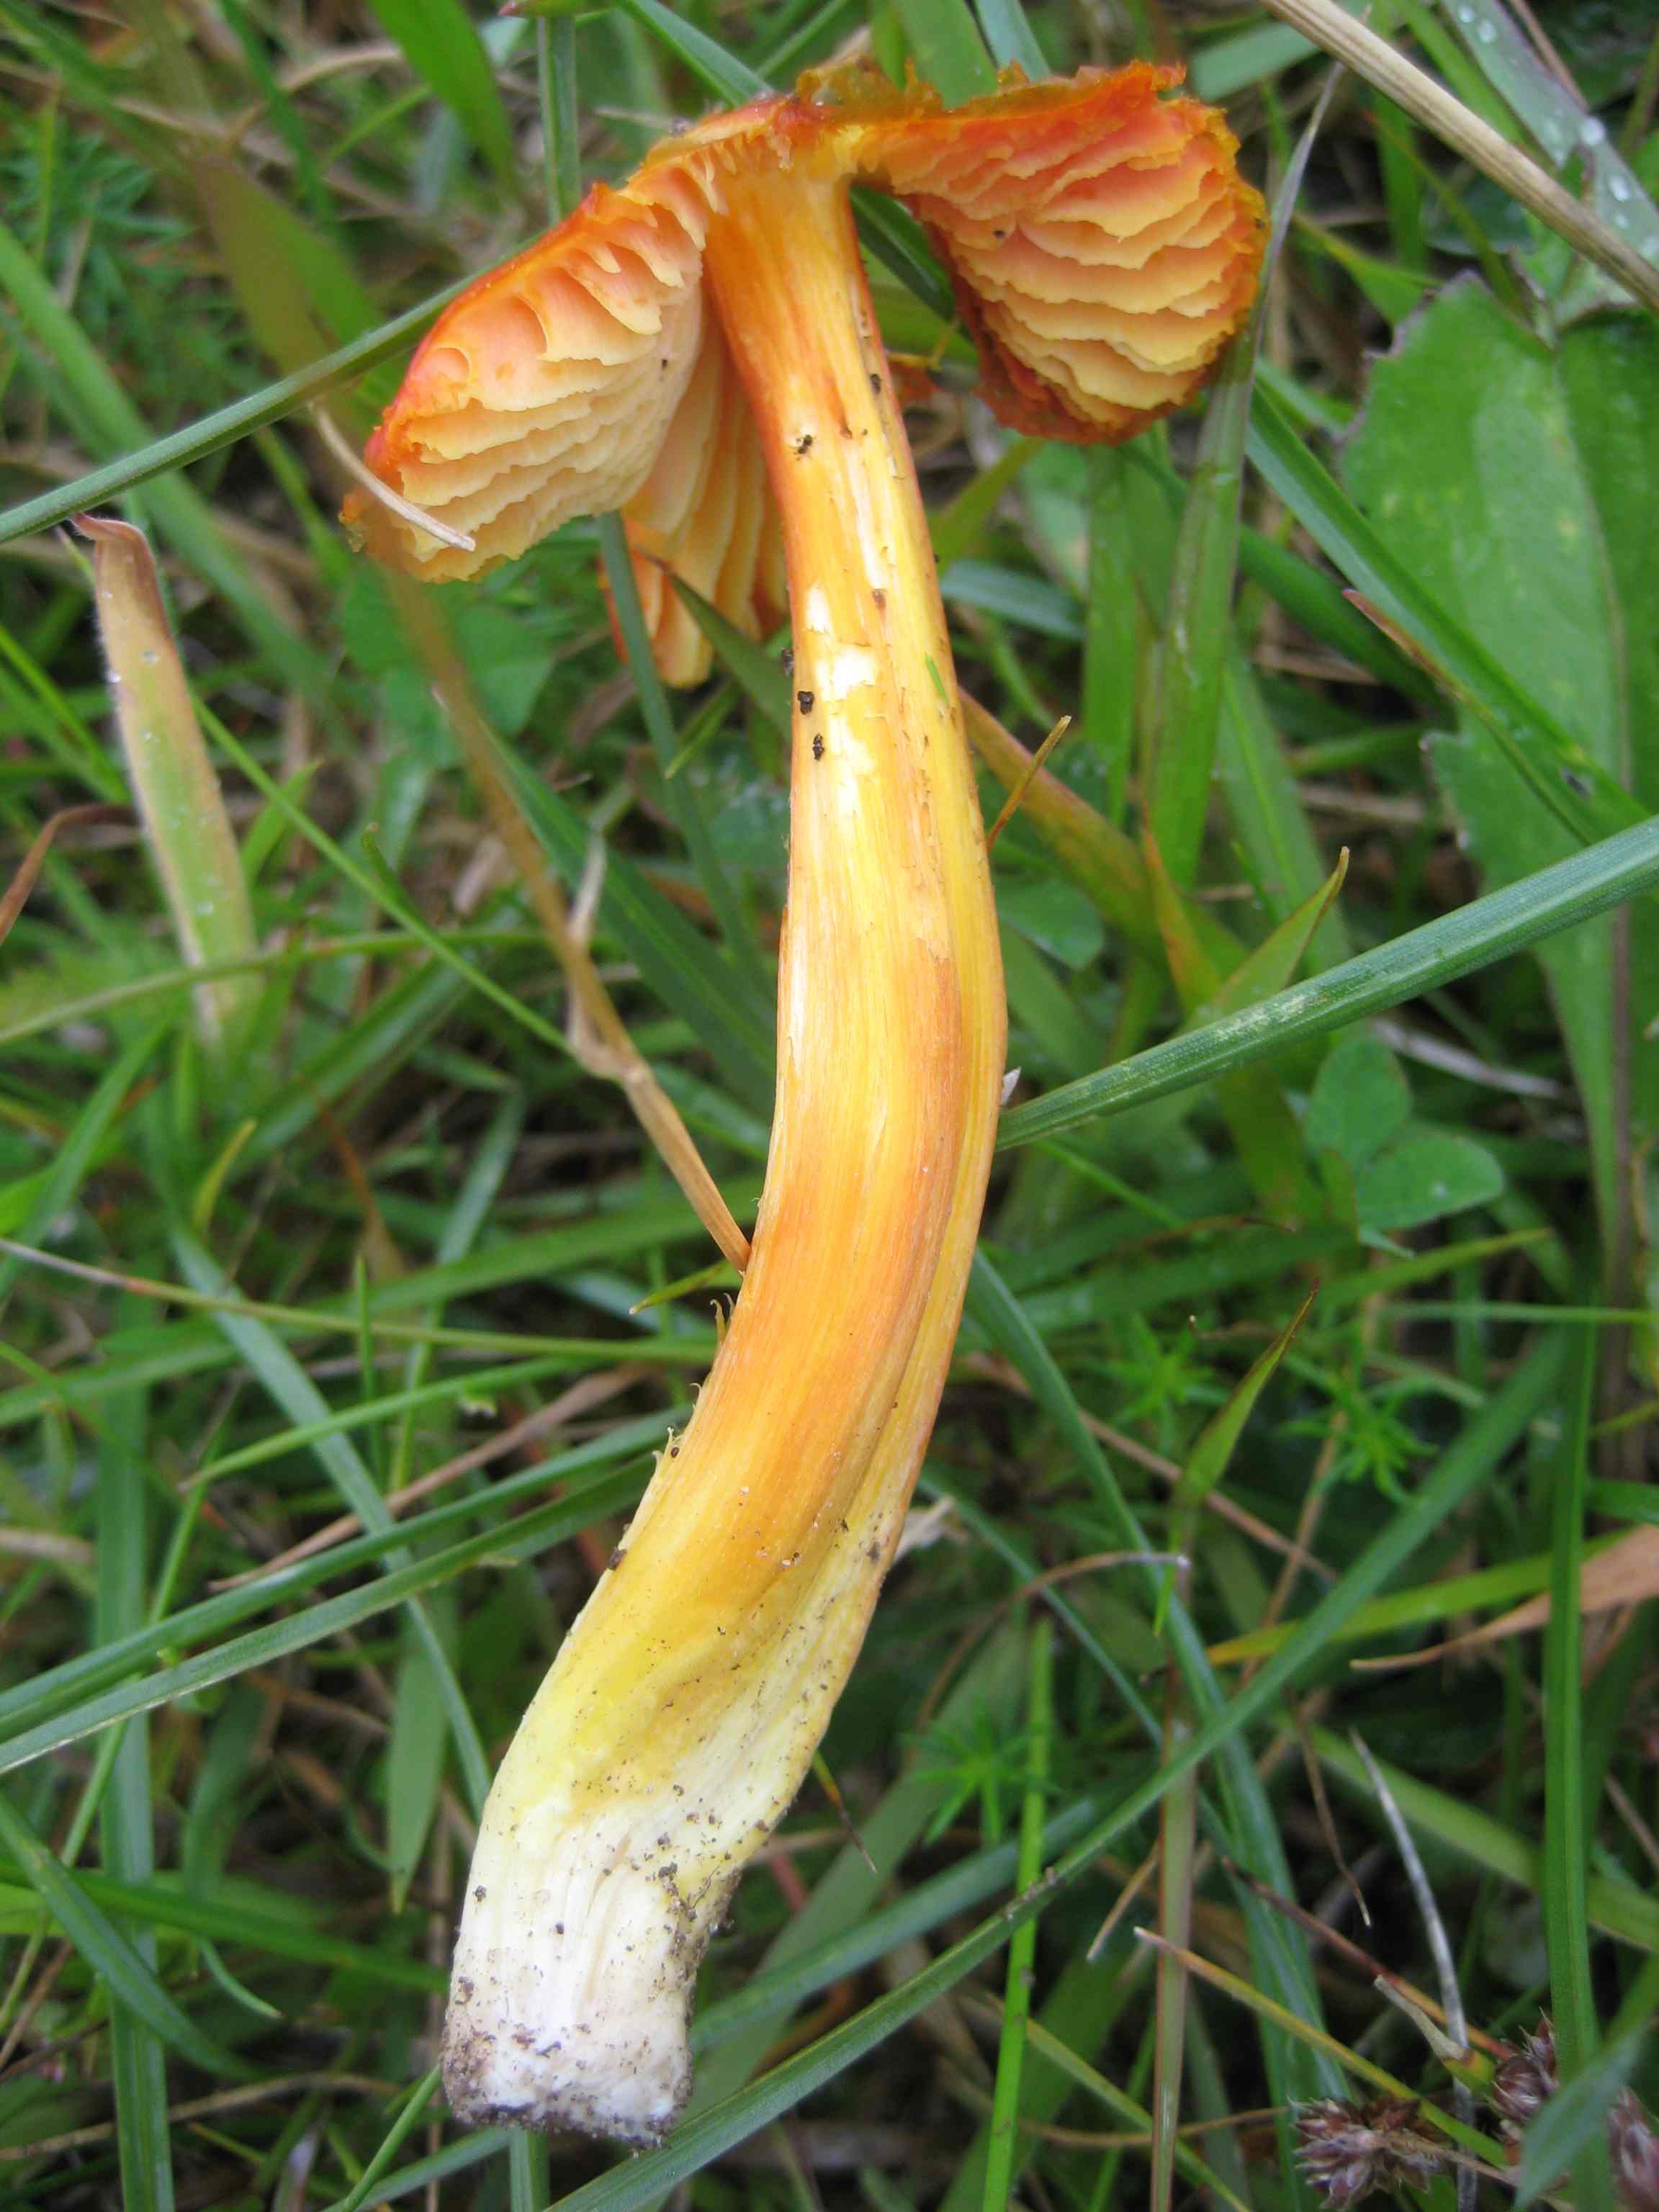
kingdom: Fungi
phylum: Basidiomycota
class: Agaricomycetes
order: Agaricales
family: Hygrophoraceae
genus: Hygrocybe
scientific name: Hygrocybe punicea
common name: skarlagen-vokshat
